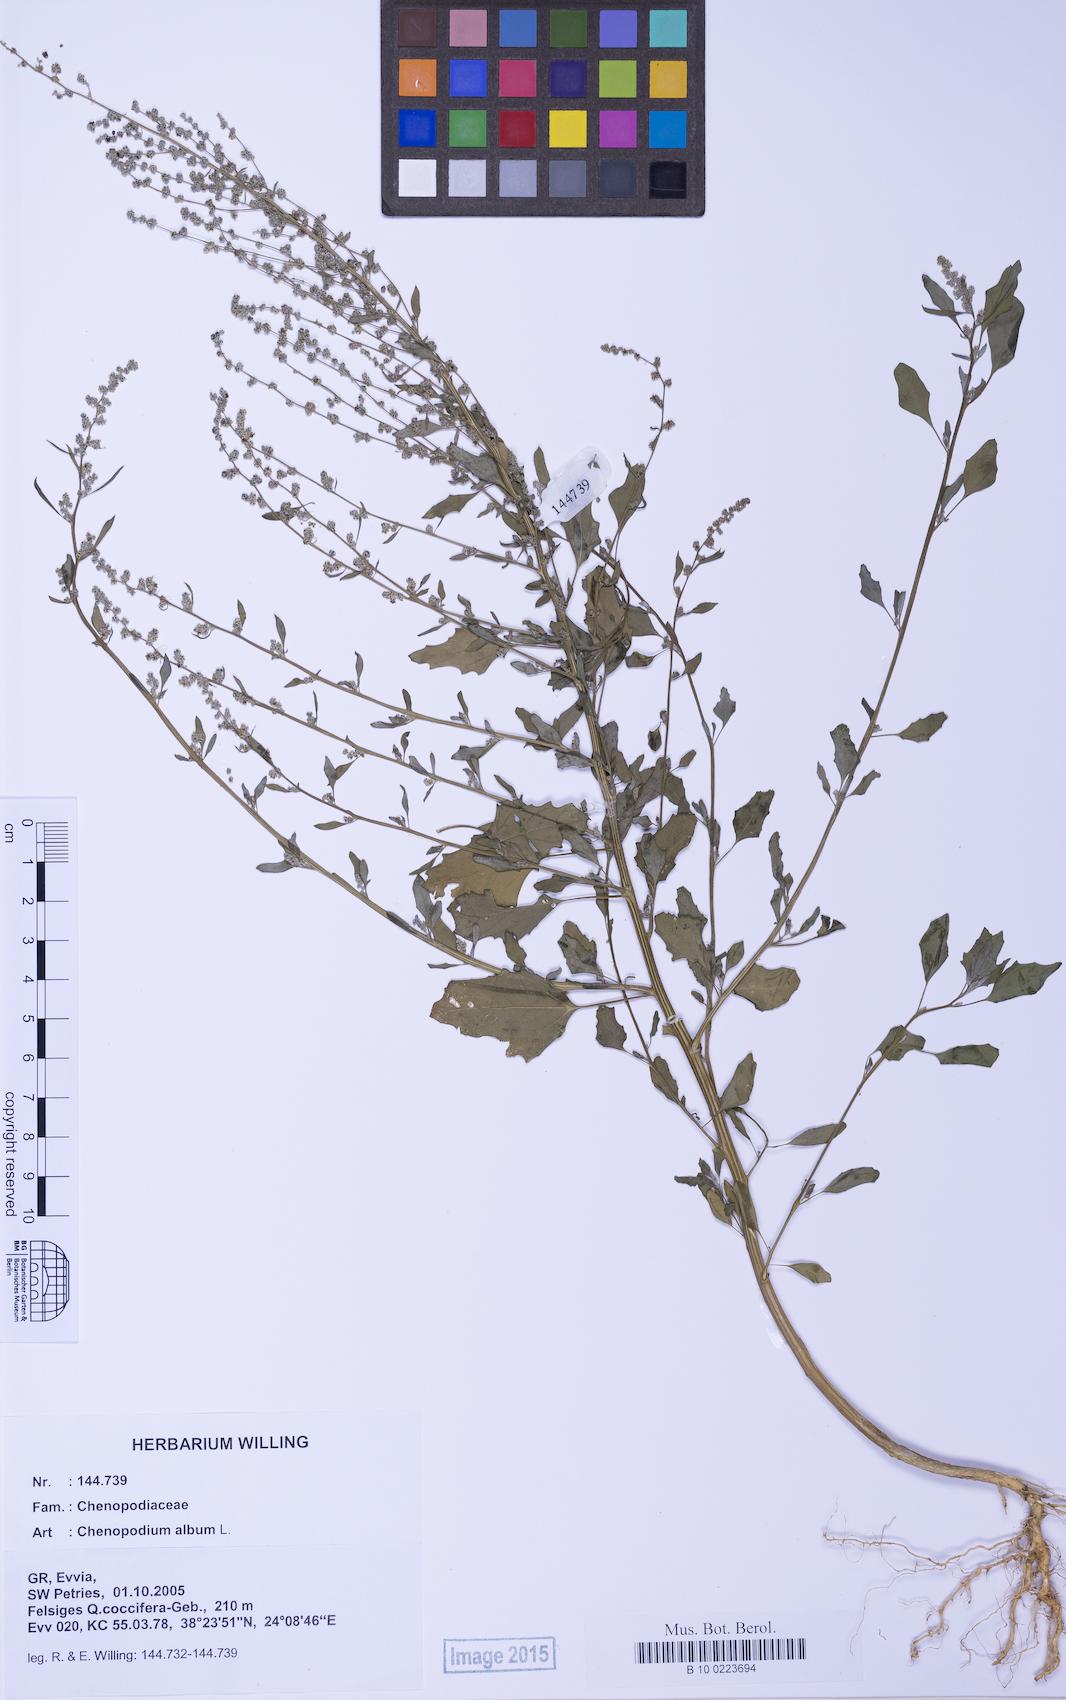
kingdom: Plantae
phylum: Tracheophyta
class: Magnoliopsida
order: Caryophyllales
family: Amaranthaceae
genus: Chenopodium
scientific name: Chenopodium album
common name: Fat-hen
